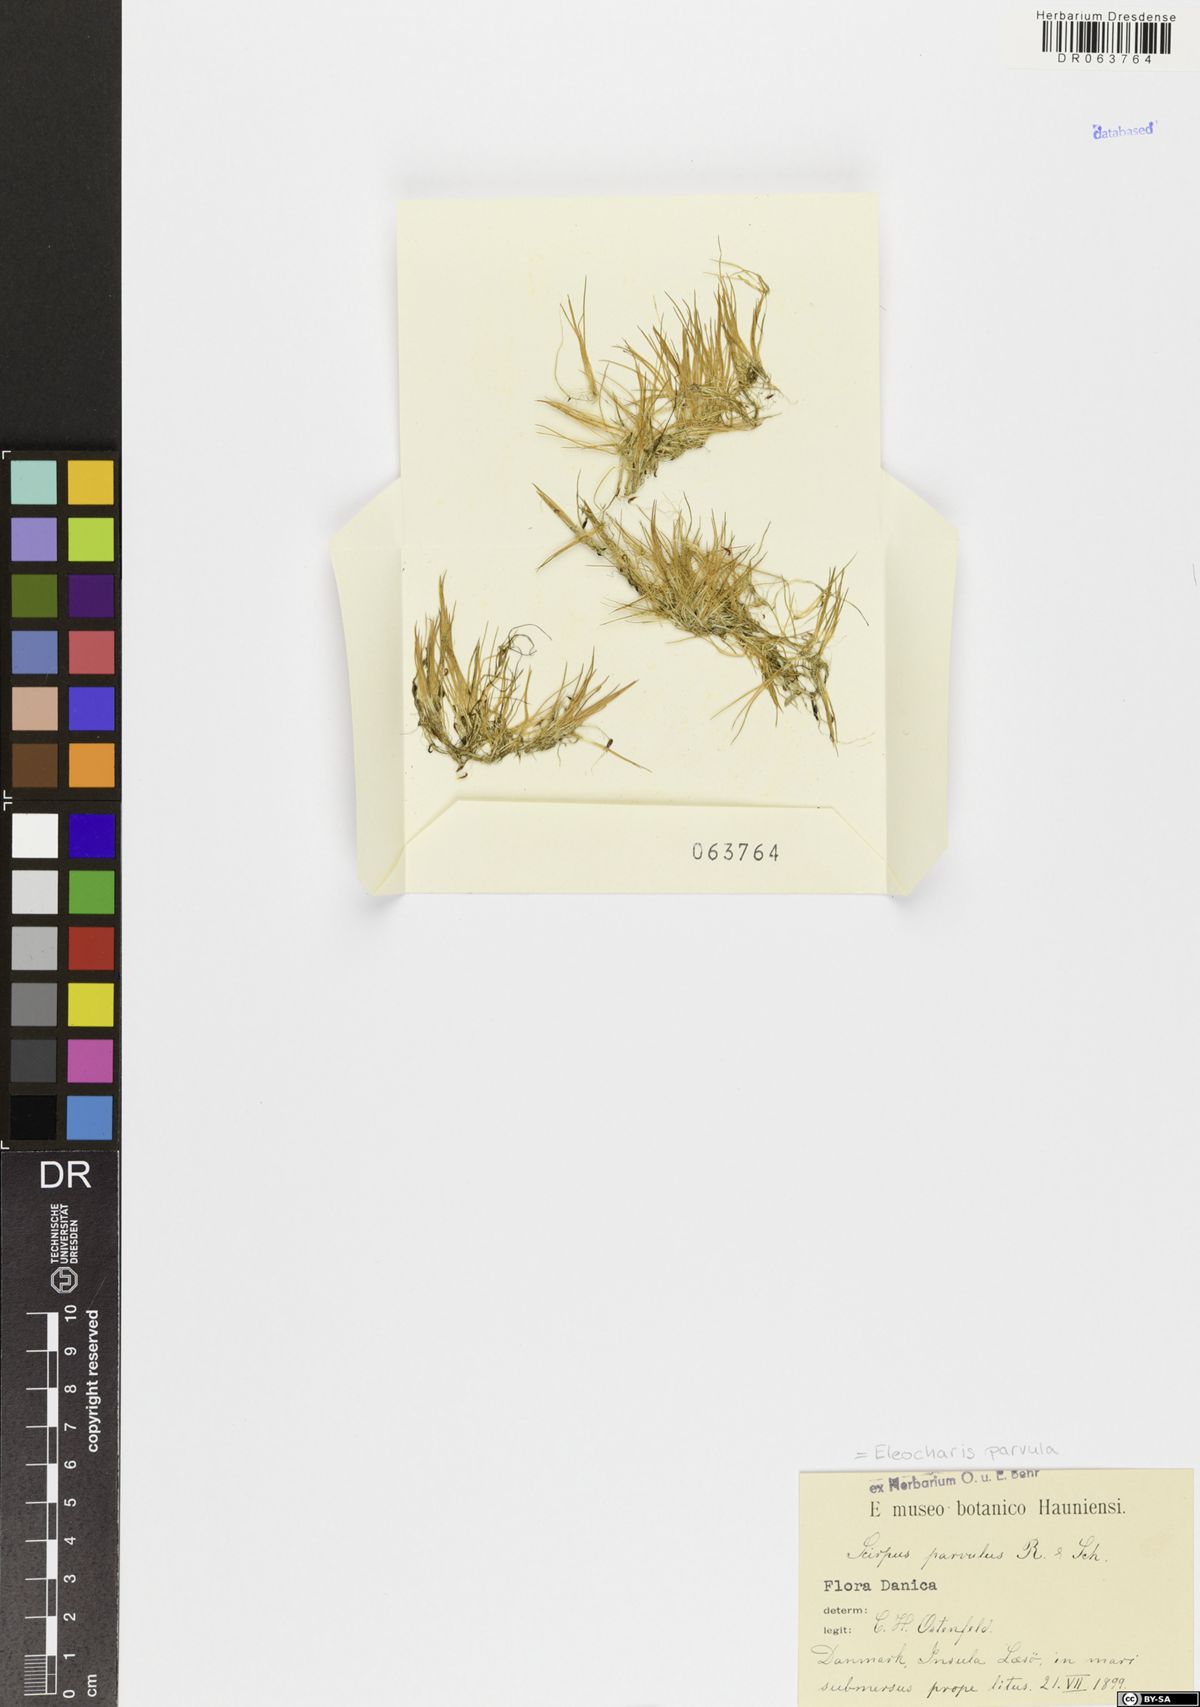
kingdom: Plantae
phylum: Tracheophyta
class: Liliopsida
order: Poales
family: Cyperaceae
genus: Eleocharis
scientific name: Eleocharis parvula
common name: Dwarf spike-rush
